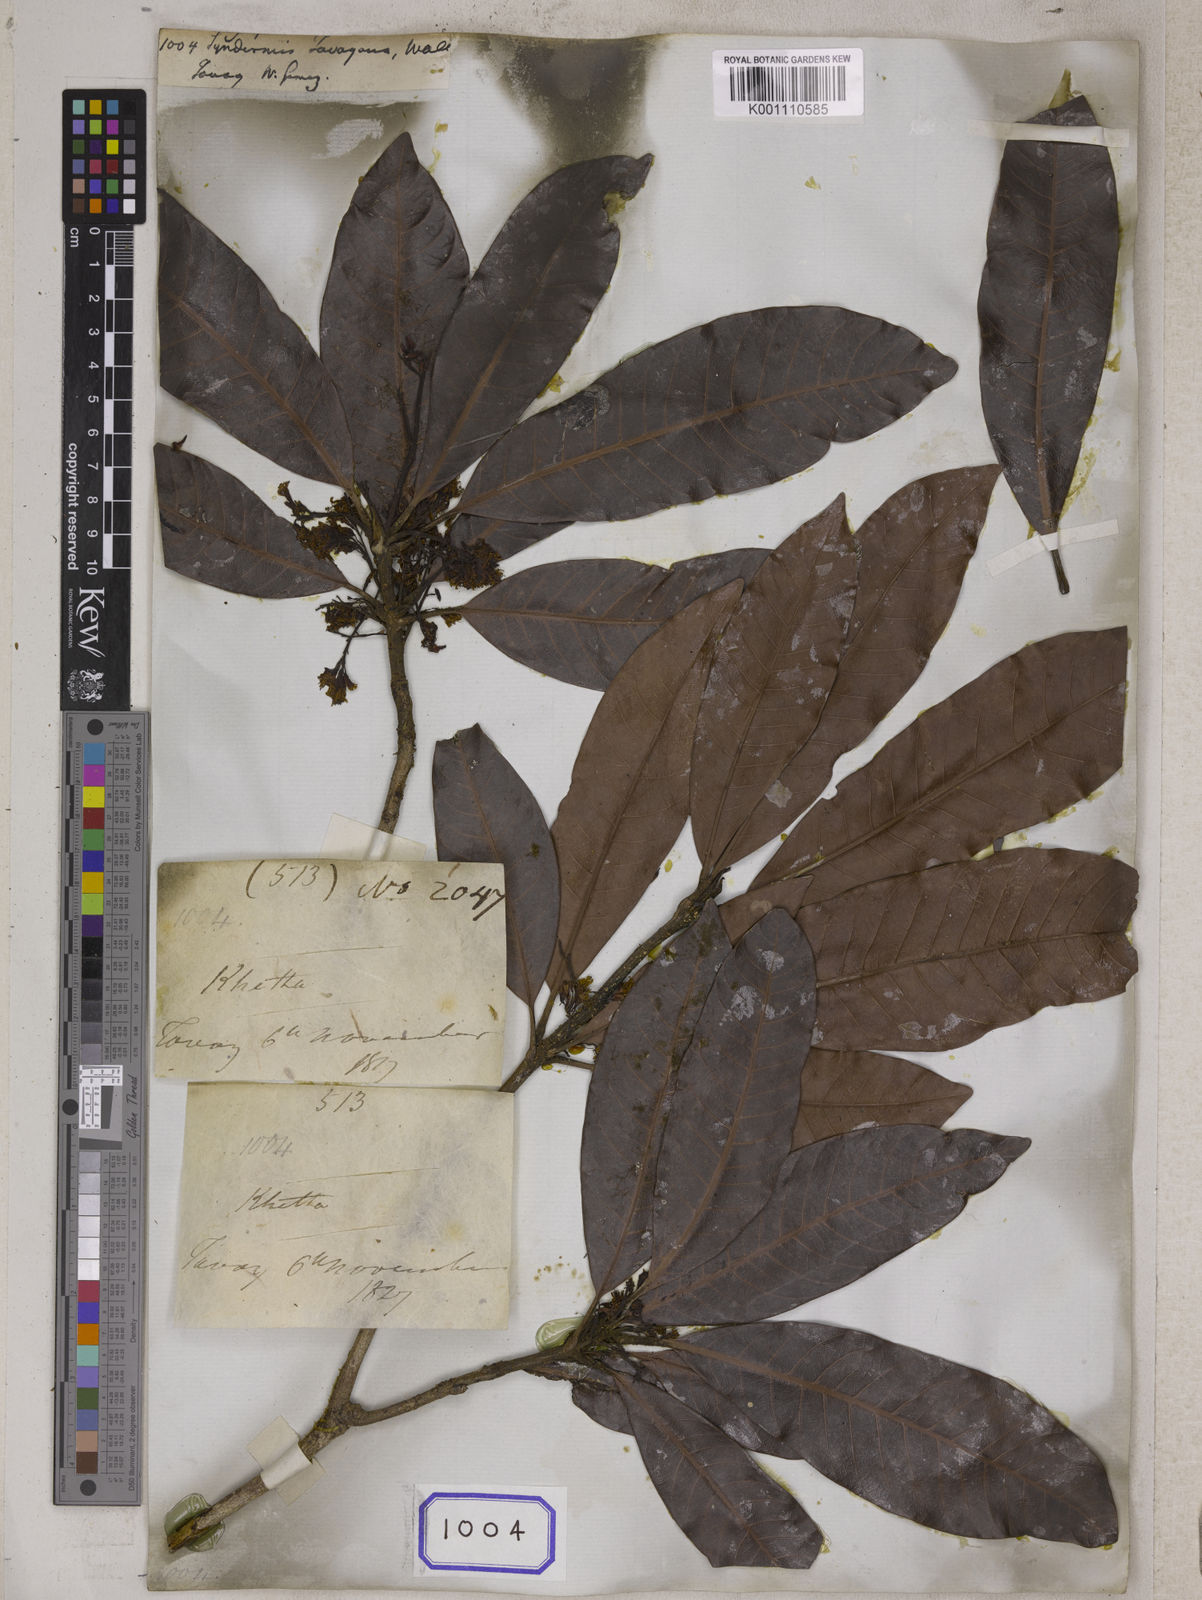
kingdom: Plantae
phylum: Tracheophyta
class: Magnoliopsida
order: Sapindales
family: Anacardiaceae
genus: Gluta
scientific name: Gluta tavoyana
